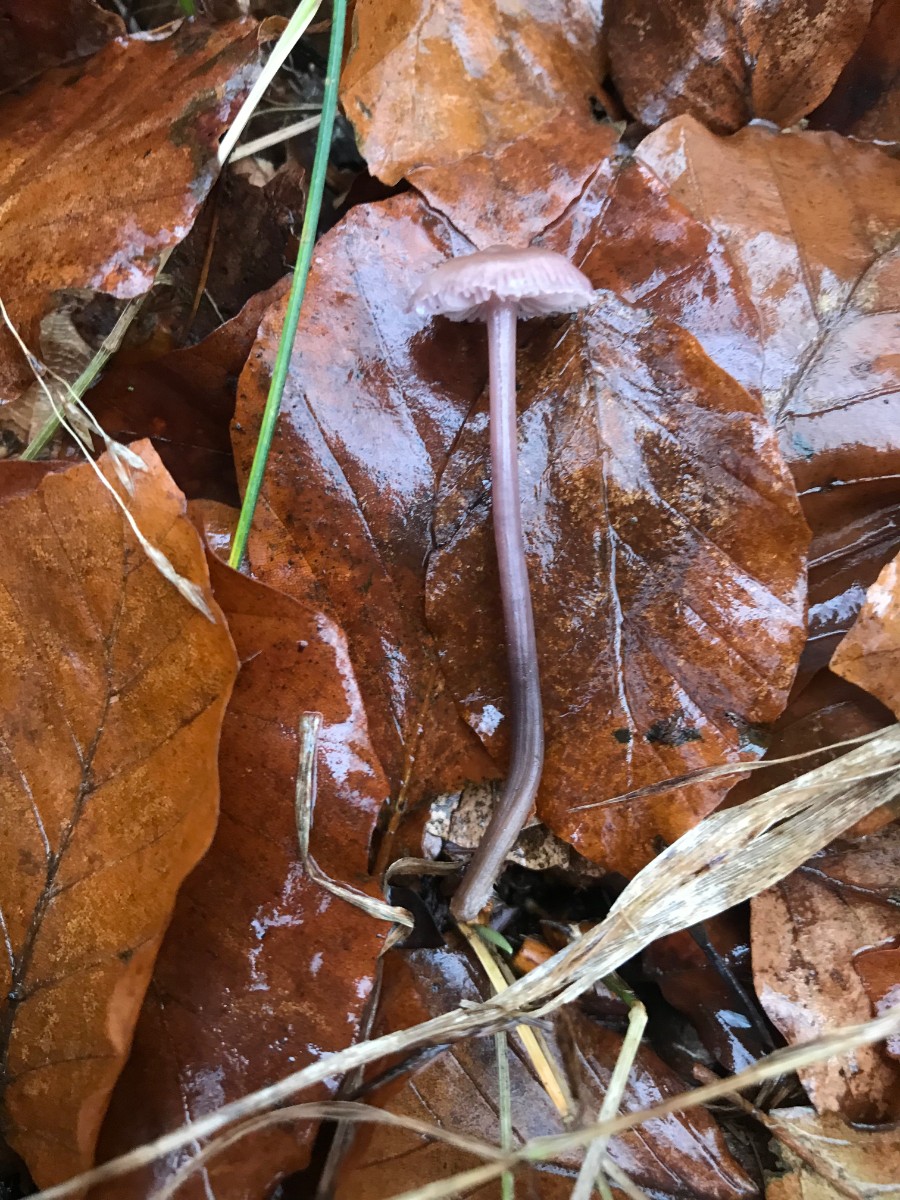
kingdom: Fungi
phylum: Basidiomycota
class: Agaricomycetes
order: Agaricales
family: Mycenaceae
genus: Prunulus
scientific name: Prunulus diosmus
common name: tobaks-huesvamp
